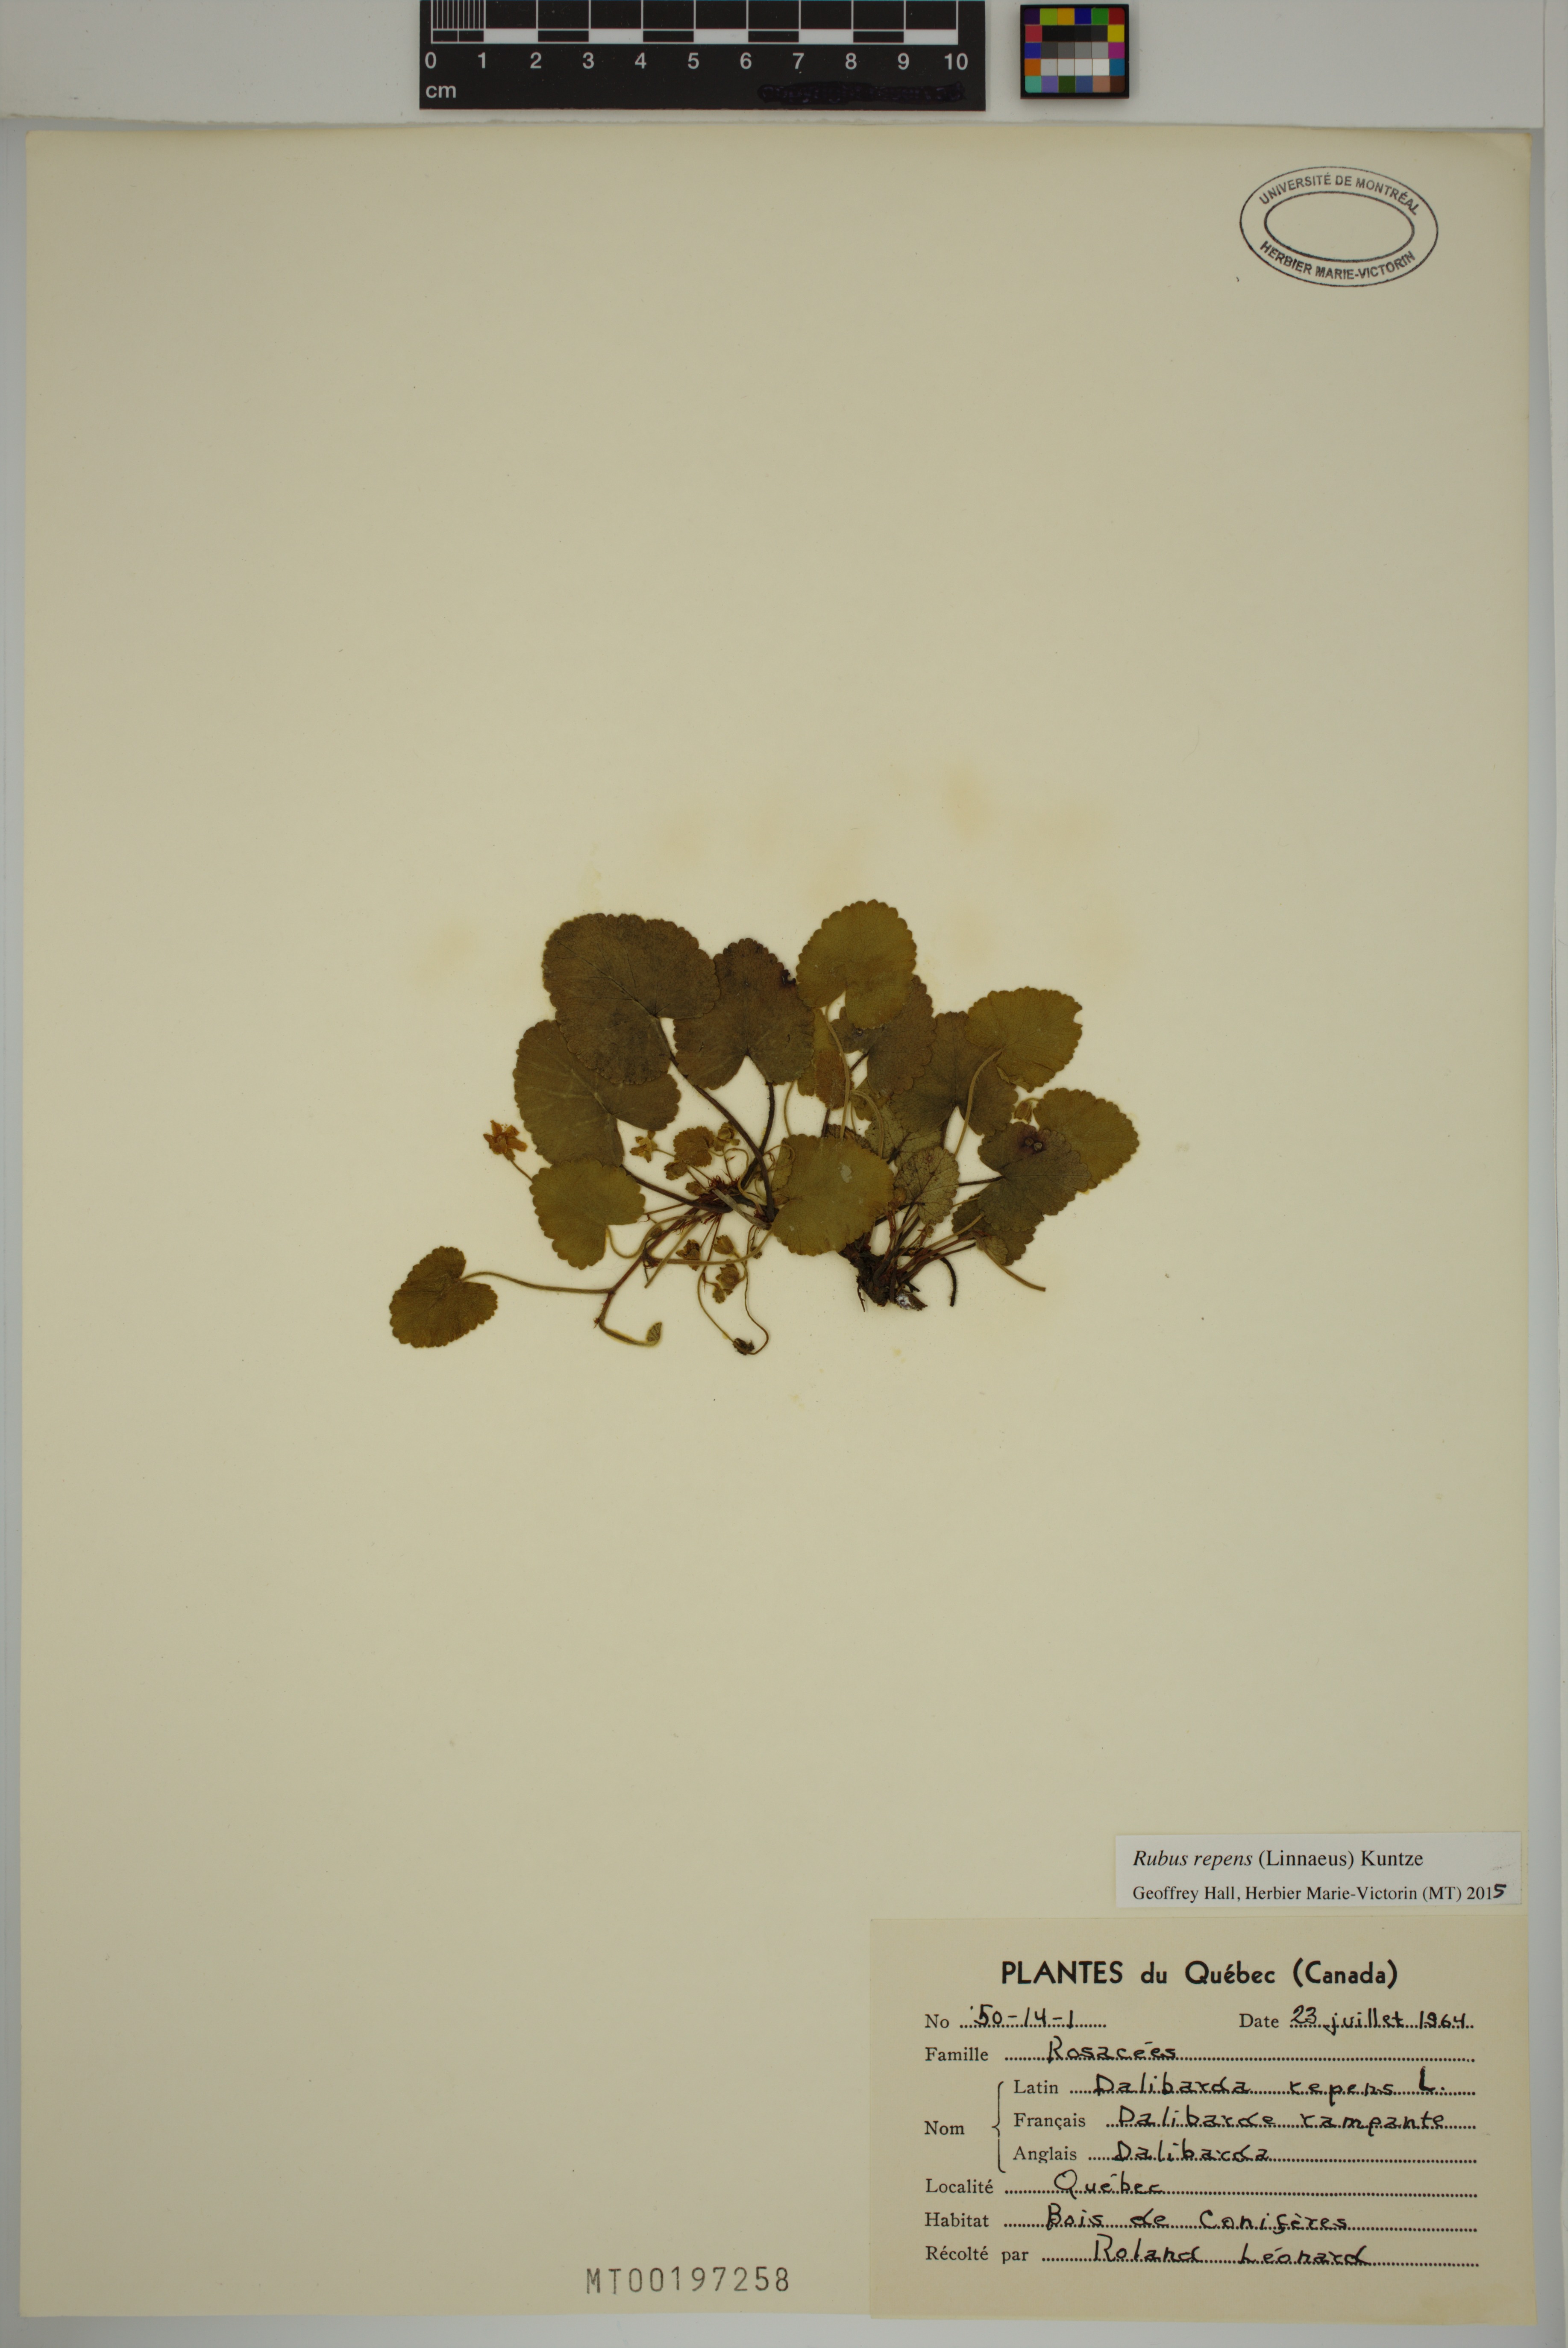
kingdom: Plantae
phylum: Tracheophyta
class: Magnoliopsida
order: Rosales
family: Rosaceae
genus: Dalibarda
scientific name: Dalibarda repens
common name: Dewdrop
